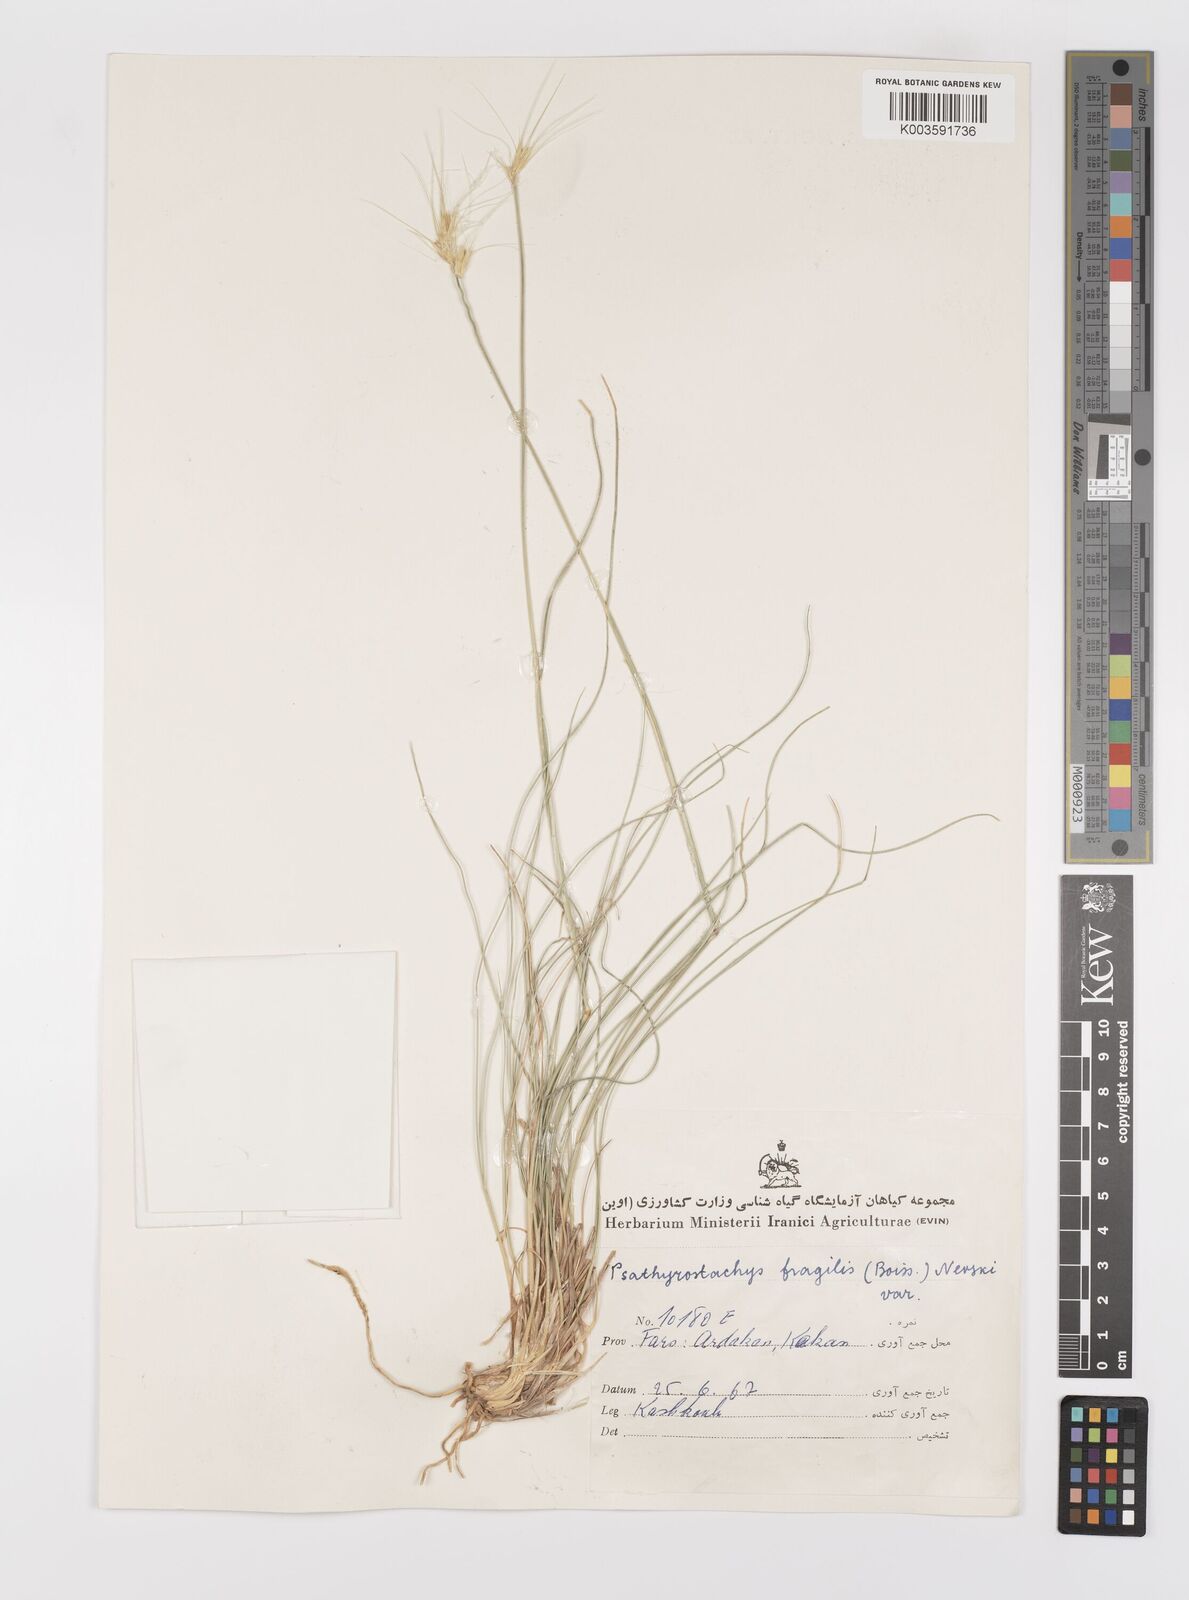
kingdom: Plantae
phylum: Tracheophyta
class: Liliopsida
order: Poales
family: Poaceae
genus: Psathyrostachys
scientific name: Psathyrostachys fragilis
